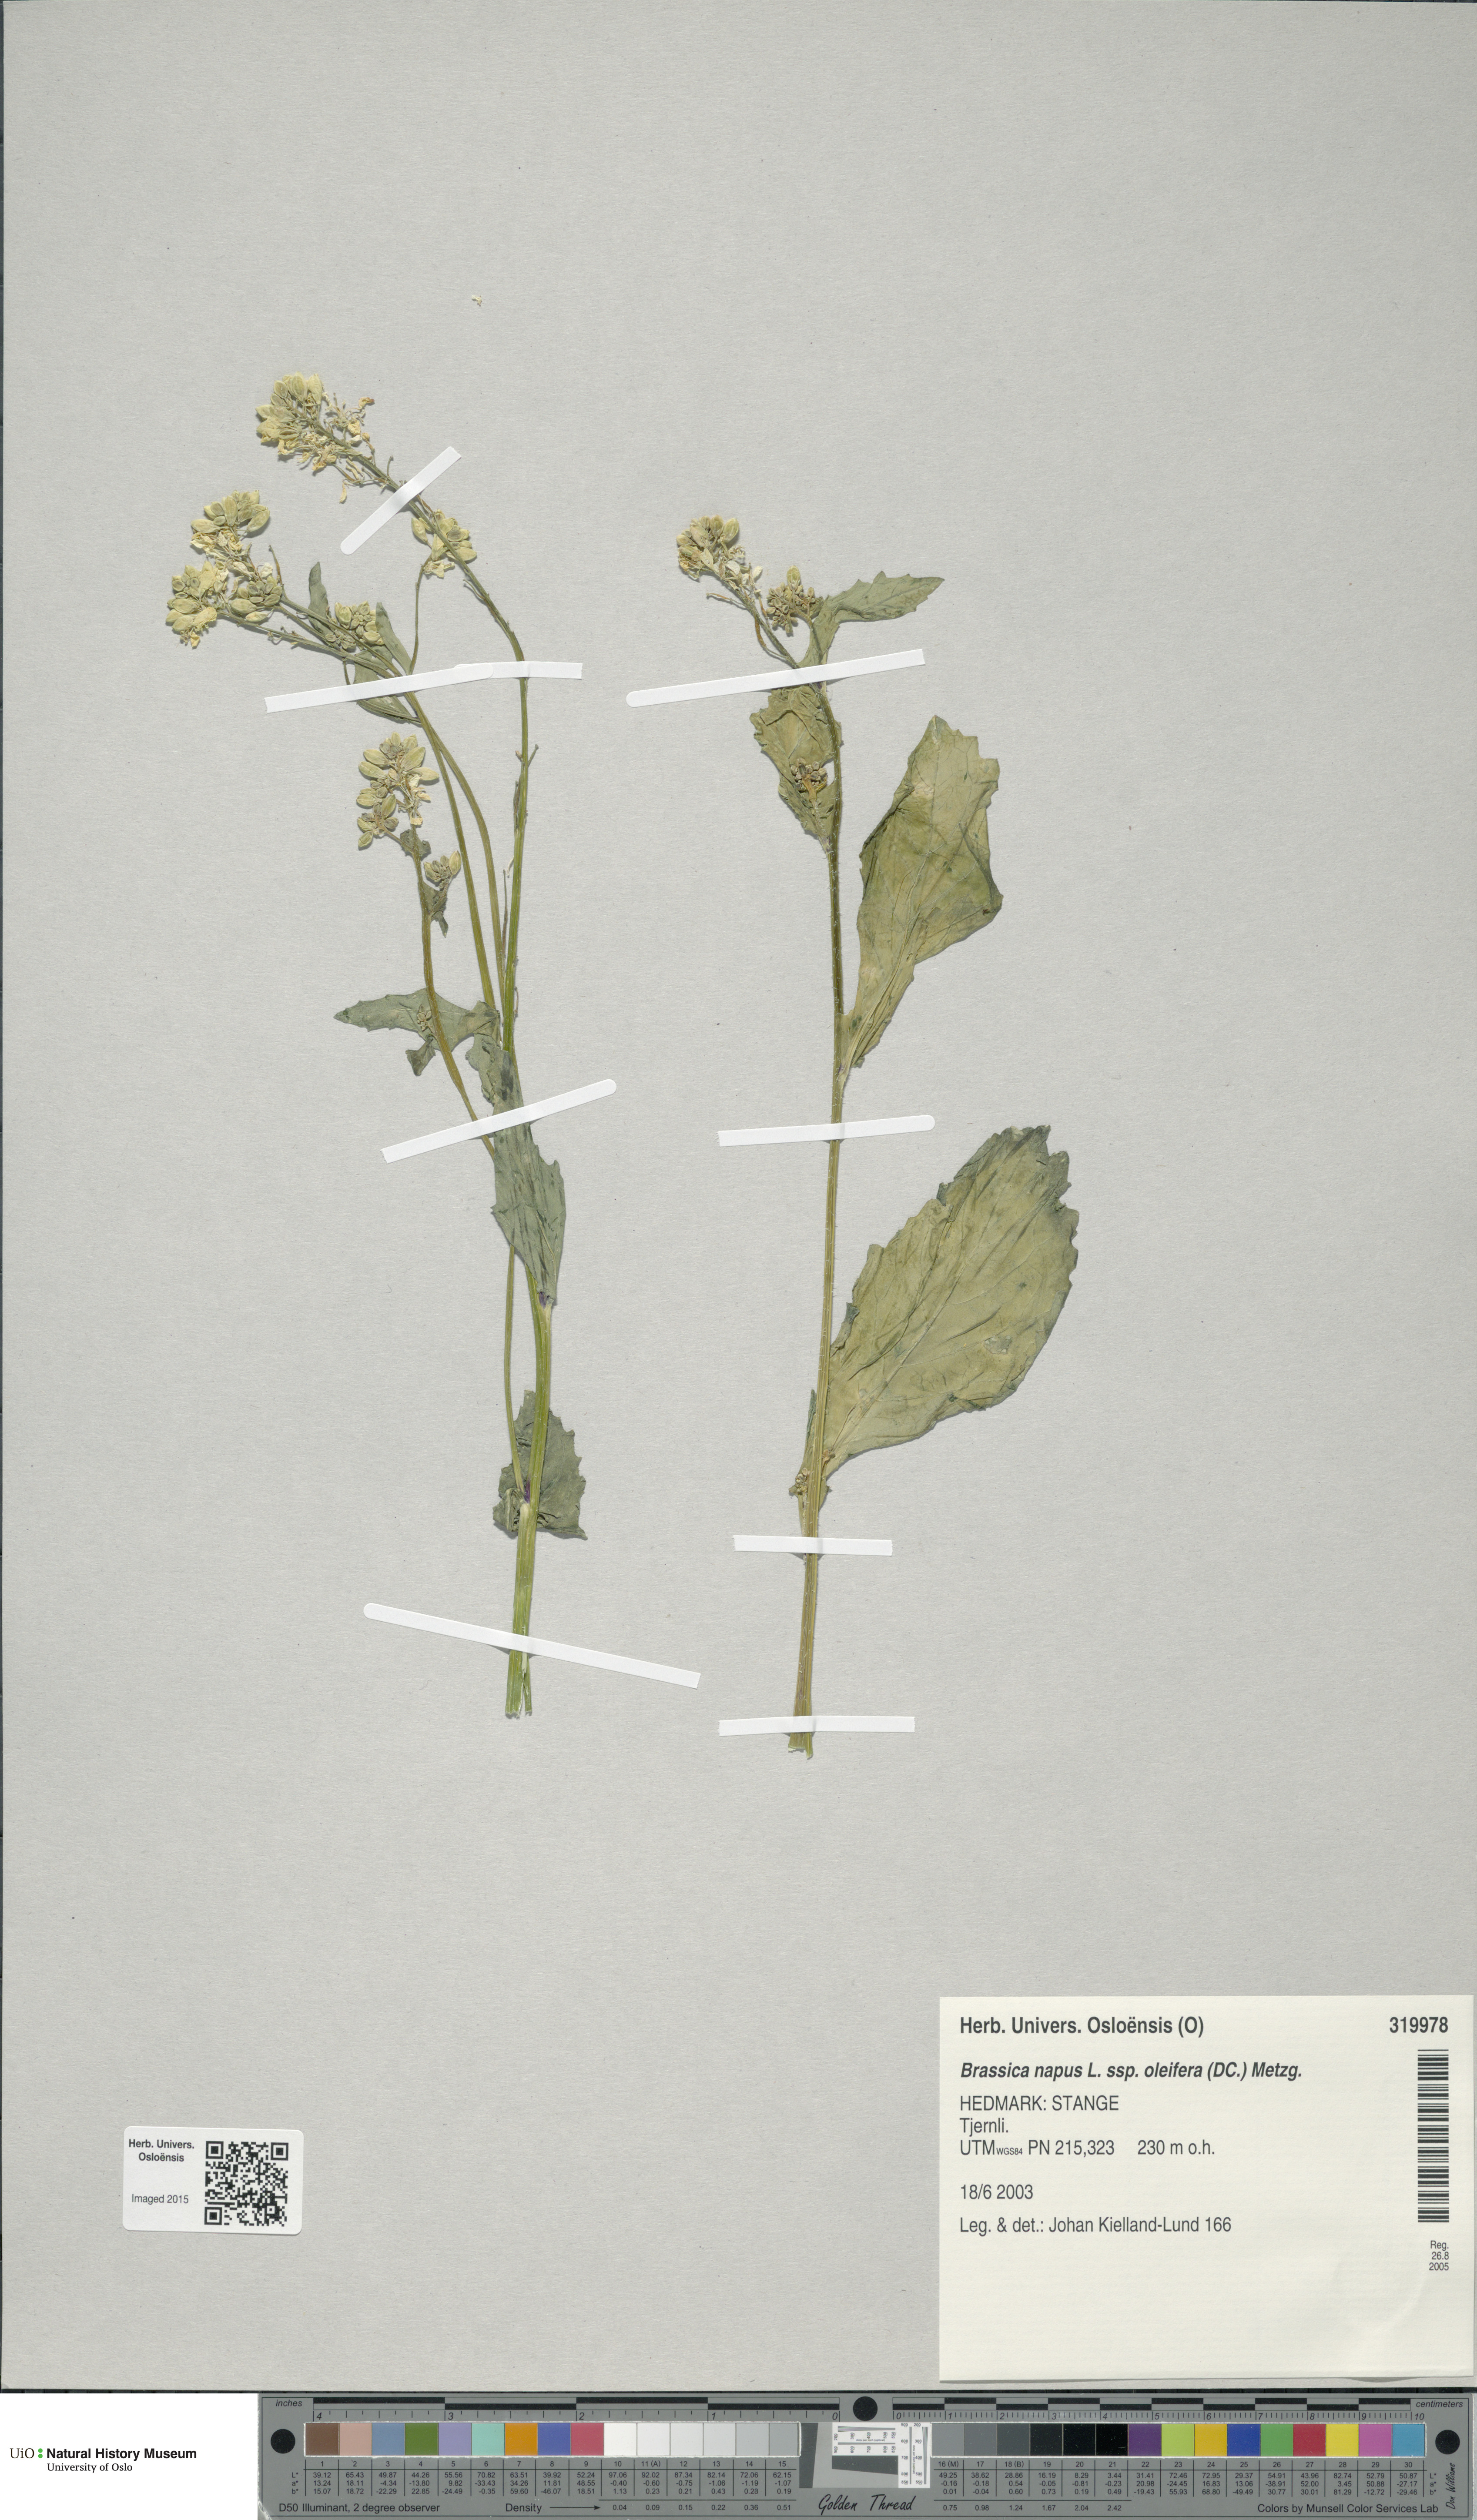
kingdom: Plantae
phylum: Tracheophyta
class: Magnoliopsida
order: Brassicales
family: Brassicaceae
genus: Brassica
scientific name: Brassica napus
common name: Rape
